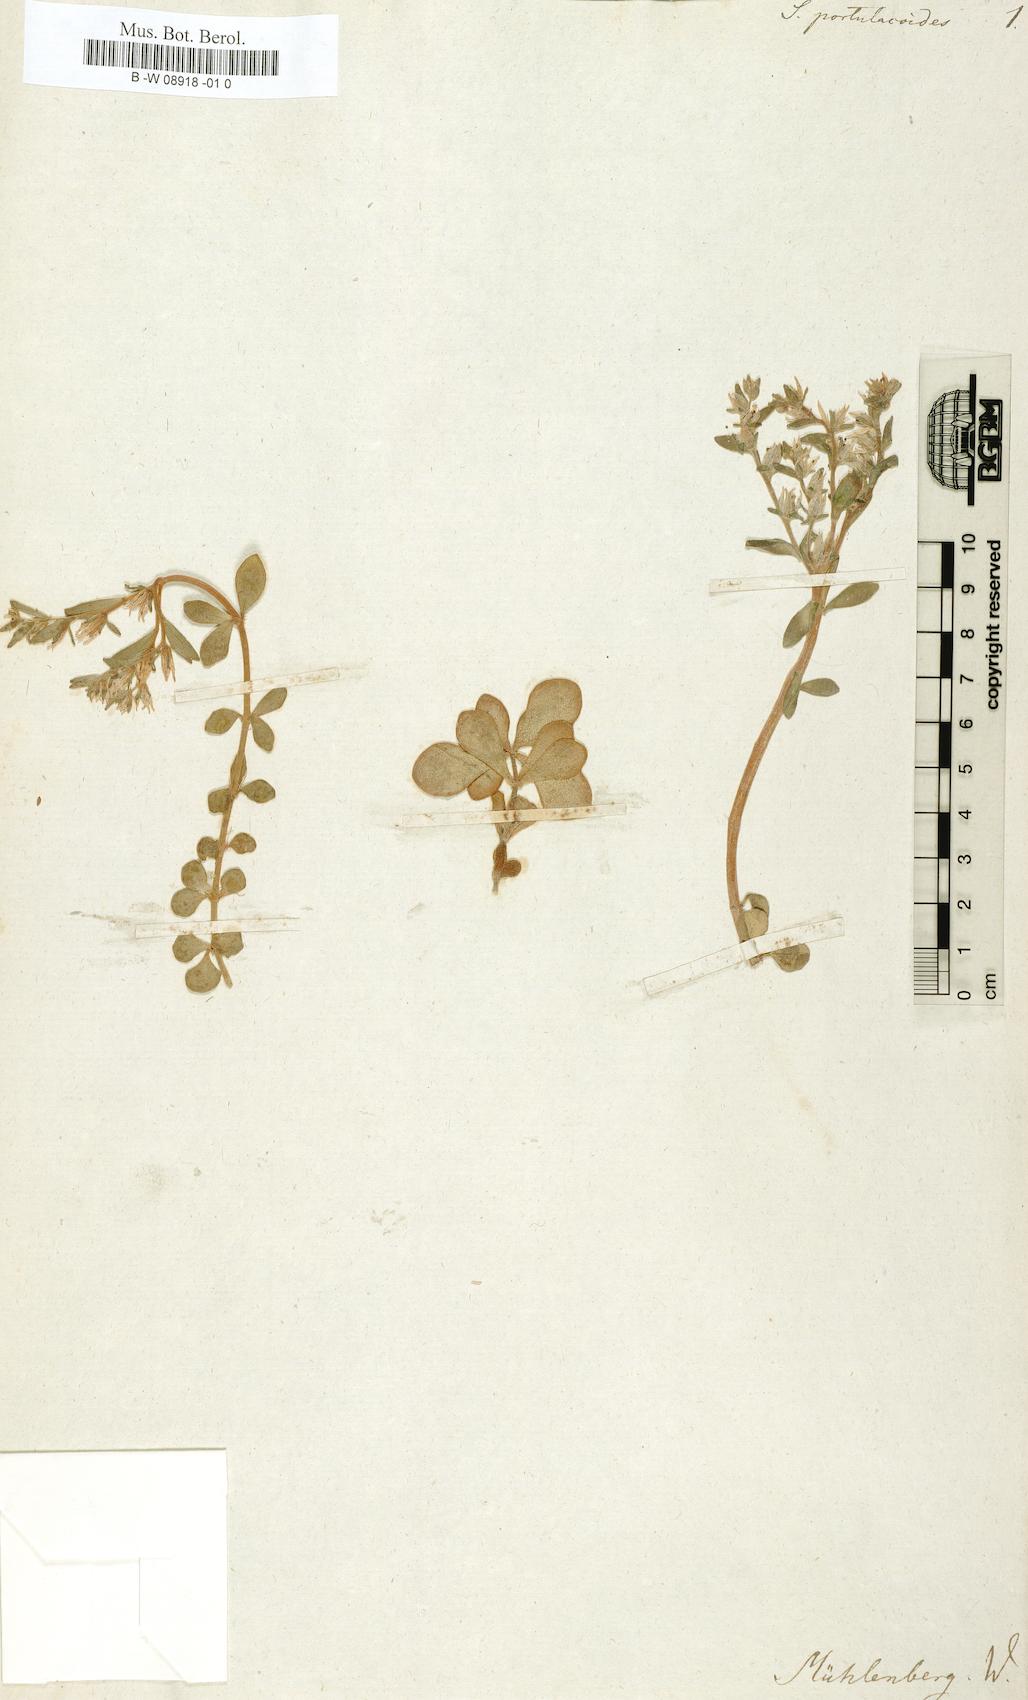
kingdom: Plantae
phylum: Tracheophyta
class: Magnoliopsida
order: Saxifragales
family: Crassulaceae
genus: Sedum
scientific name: Sedum ternatum
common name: Wild stonecrop
